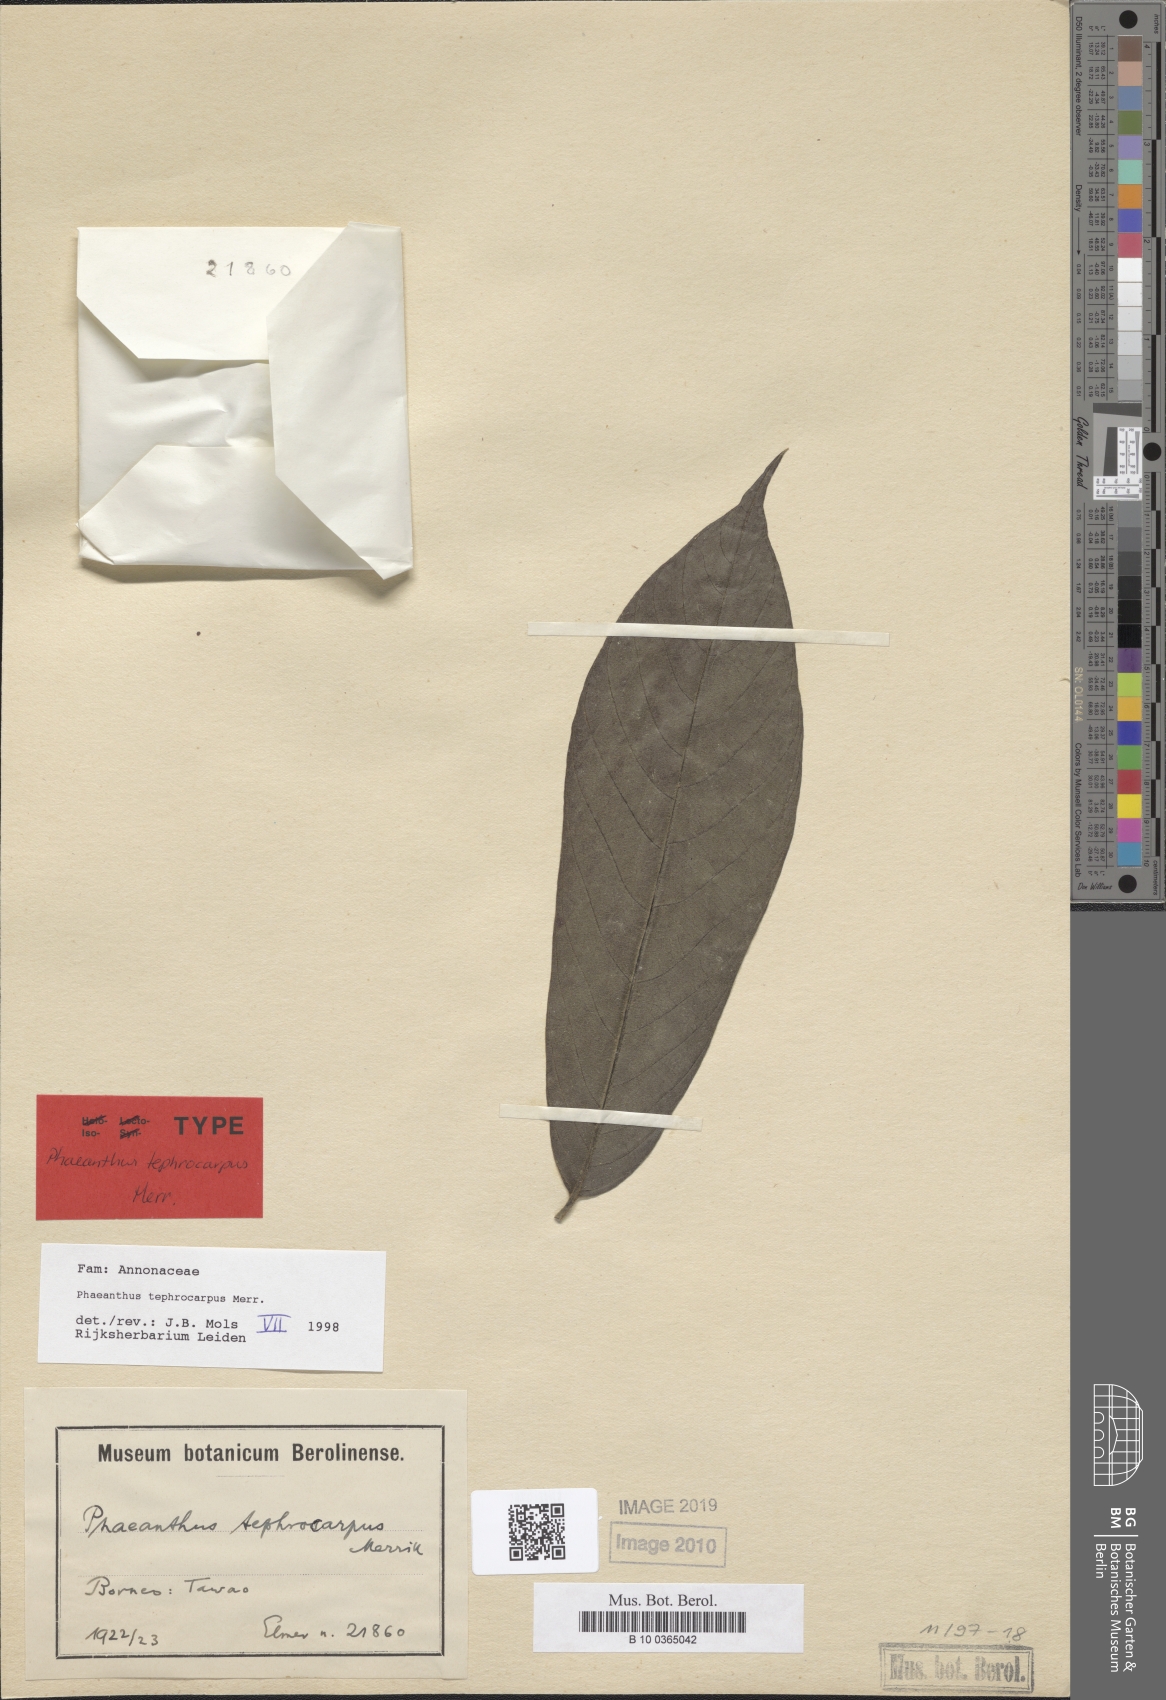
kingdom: Plantae
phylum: Tracheophyta
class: Magnoliopsida
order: Magnoliales
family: Annonaceae
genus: Phaeanthus
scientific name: Phaeanthus tephrocarpus
